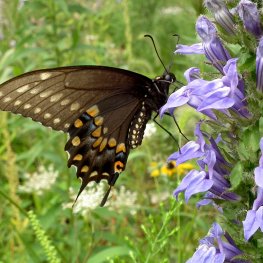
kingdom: Animalia
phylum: Arthropoda
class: Insecta
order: Lepidoptera
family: Papilionidae
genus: Papilio
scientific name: Papilio polyxenes
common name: Black Swallowtail
